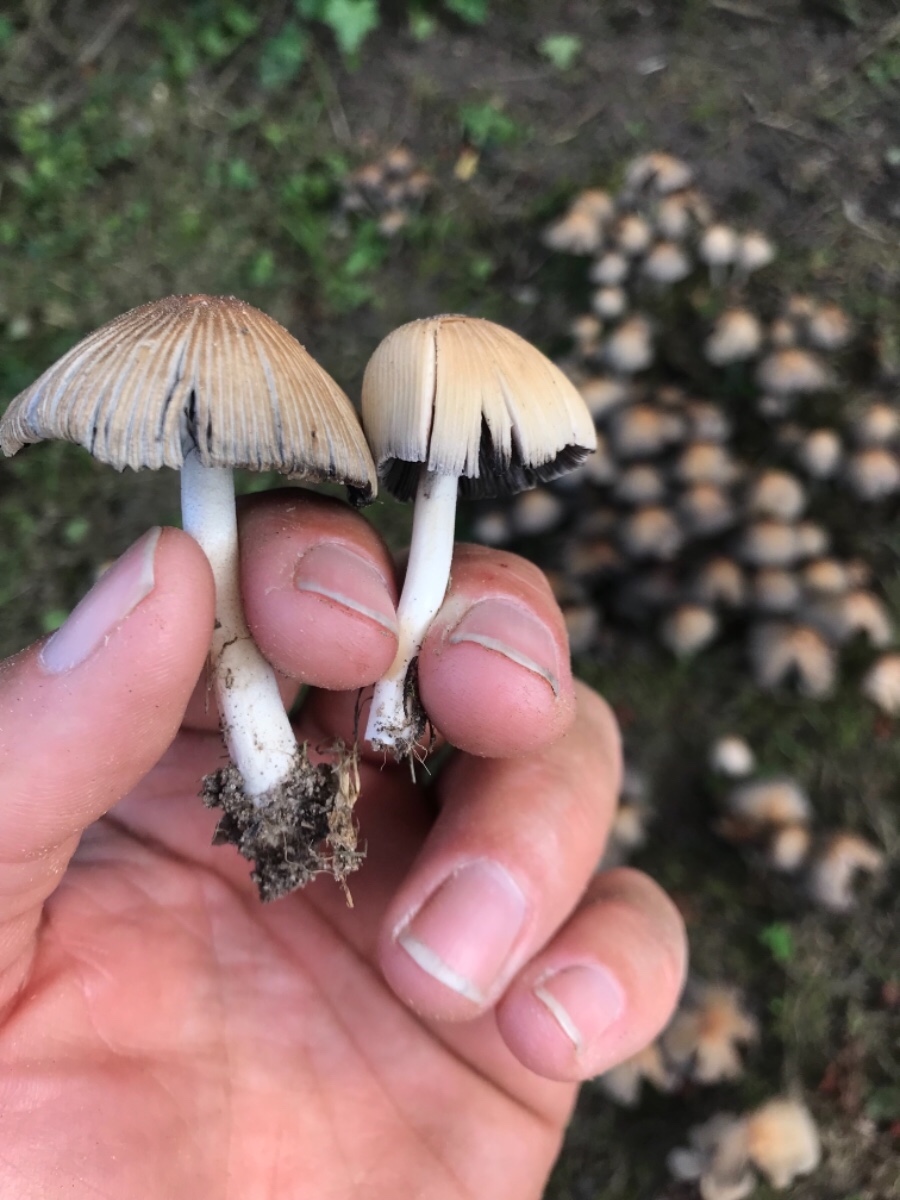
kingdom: Fungi
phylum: Basidiomycota
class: Agaricomycetes
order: Agaricales
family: Psathyrellaceae
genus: Coprinellus
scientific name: Coprinellus micaceus
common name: glimmer-blækhat
